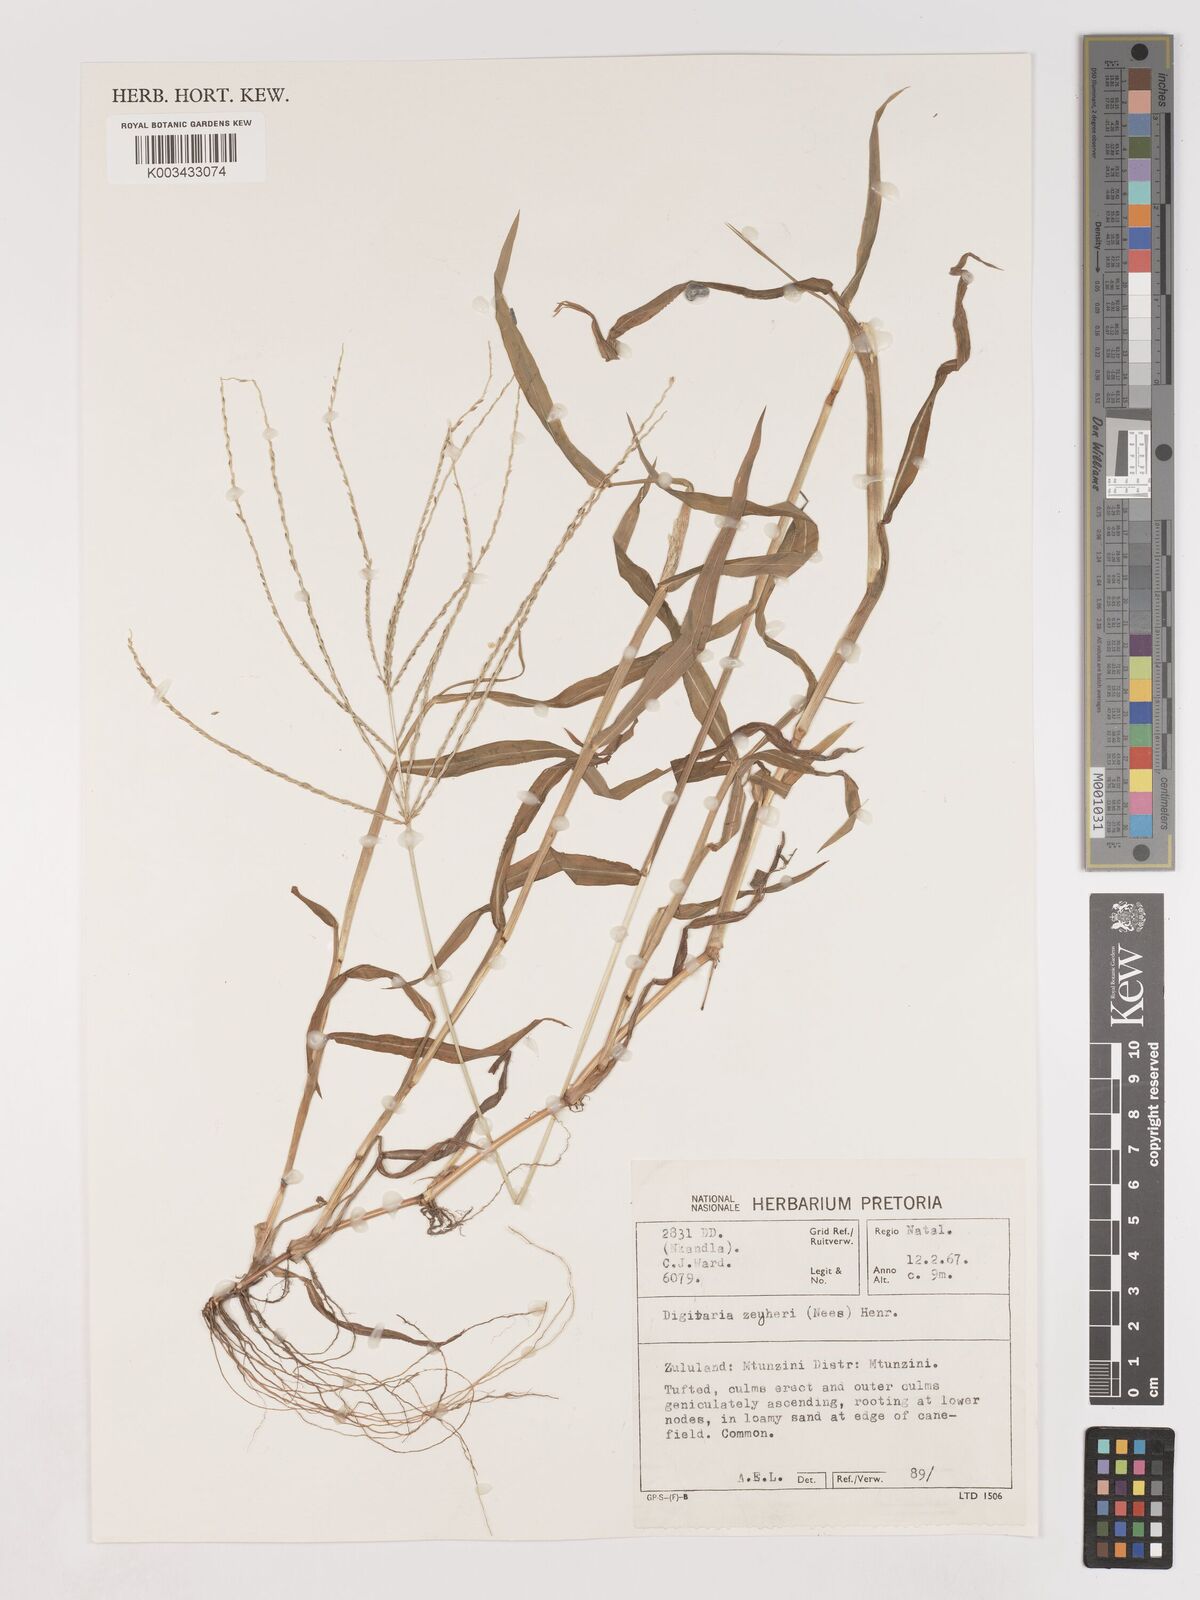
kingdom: Plantae
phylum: Tracheophyta
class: Liliopsida
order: Poales
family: Poaceae
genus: Digitaria
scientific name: Digitaria velutina
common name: Long-plume finger grass
